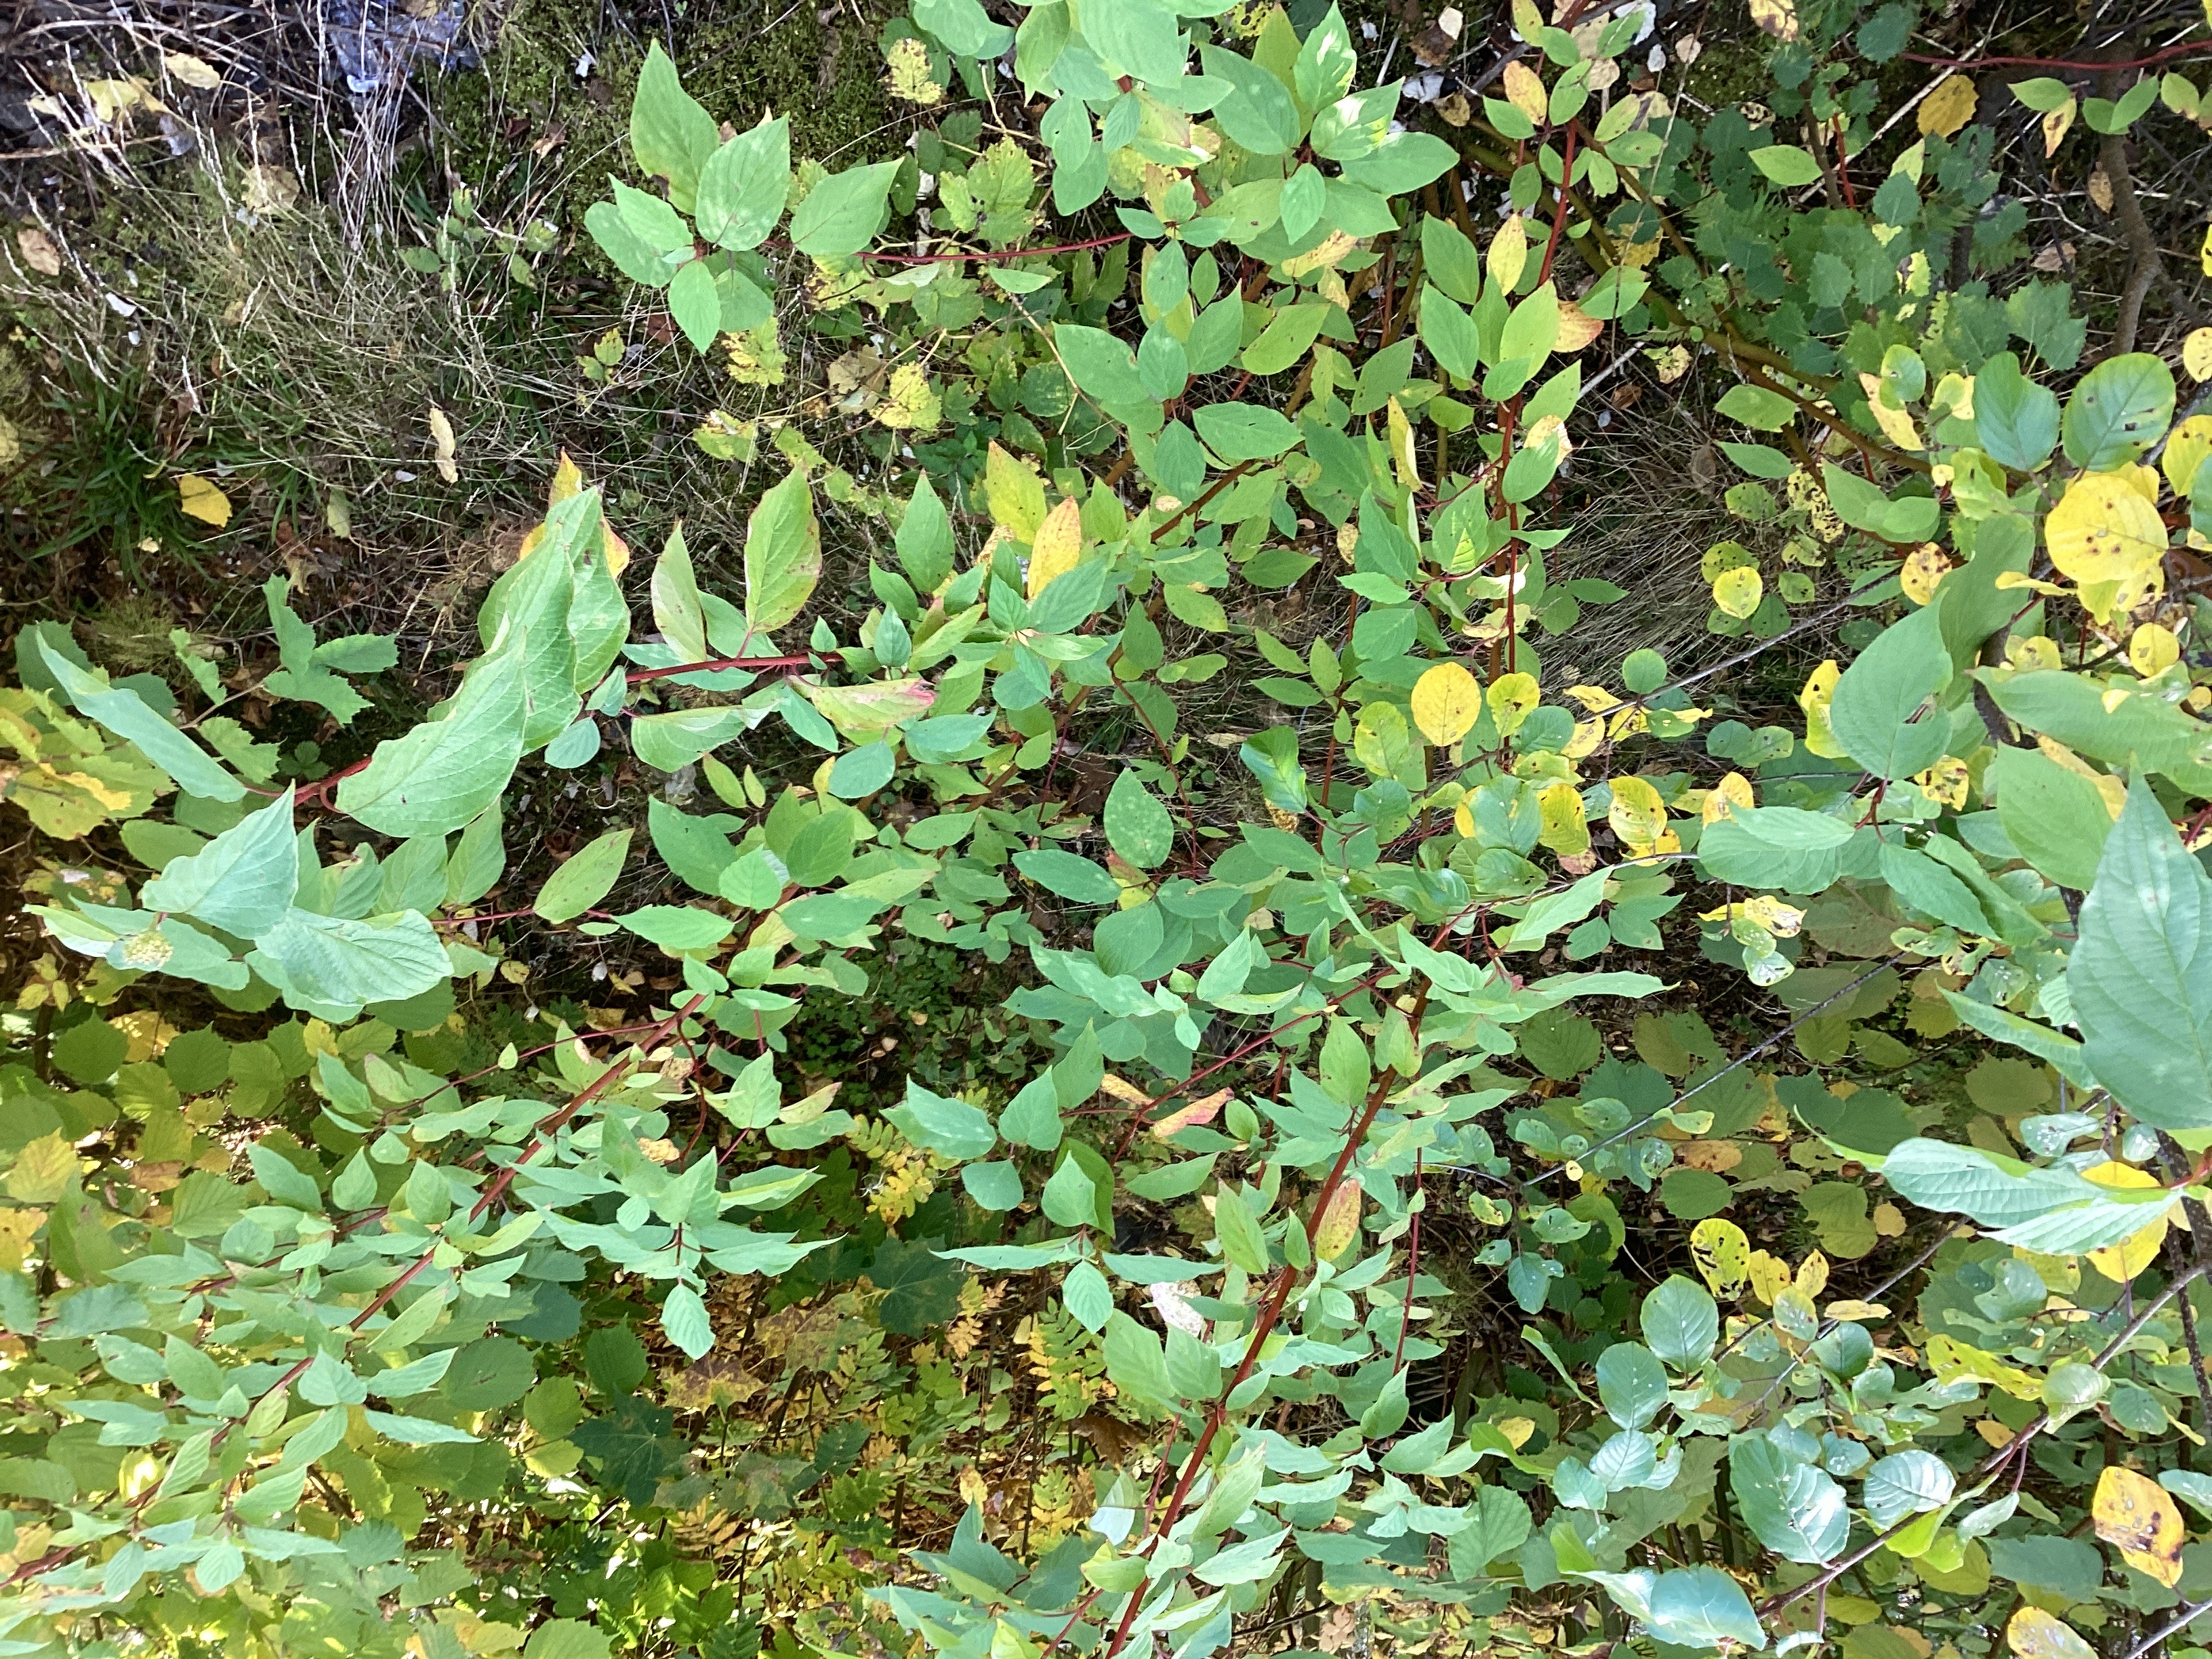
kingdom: Plantae
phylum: Tracheophyta
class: Magnoliopsida
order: Cornales
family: Cornaceae
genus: Cornus
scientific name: Cornus sericea
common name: alaskakornell
